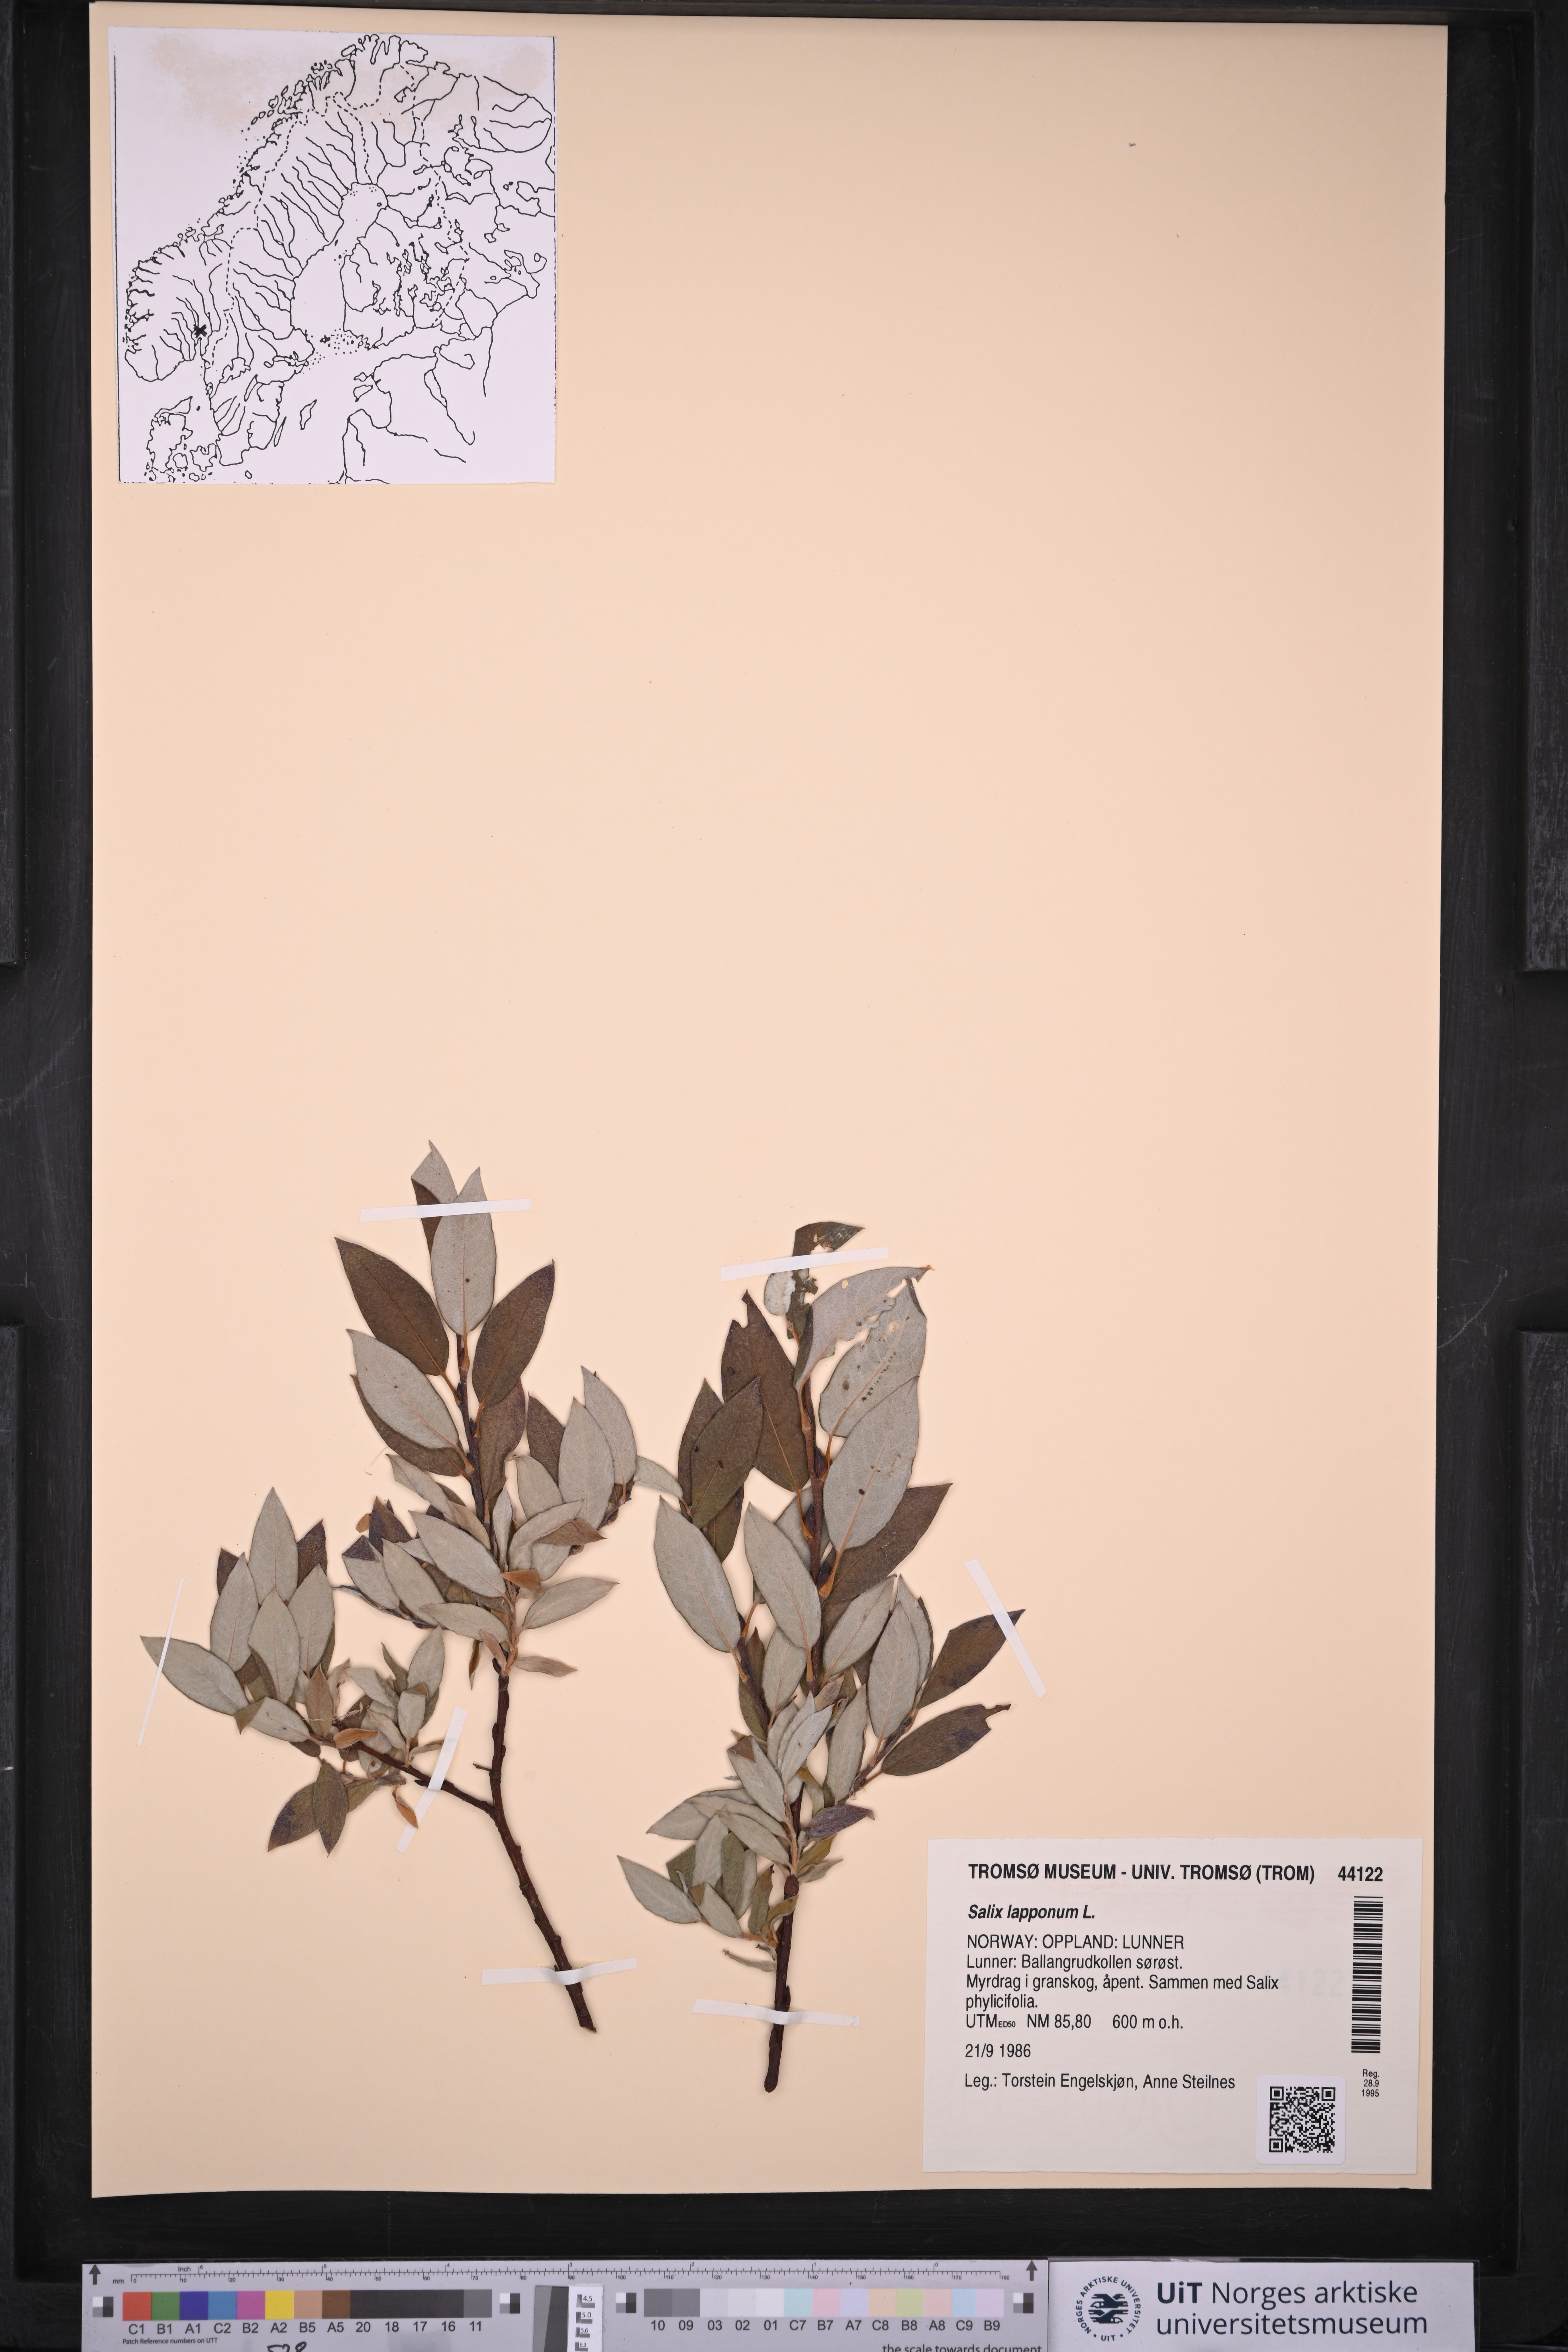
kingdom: Plantae
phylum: Tracheophyta
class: Magnoliopsida
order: Malpighiales
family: Salicaceae
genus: Salix
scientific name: Salix lapponum
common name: Downy willow
